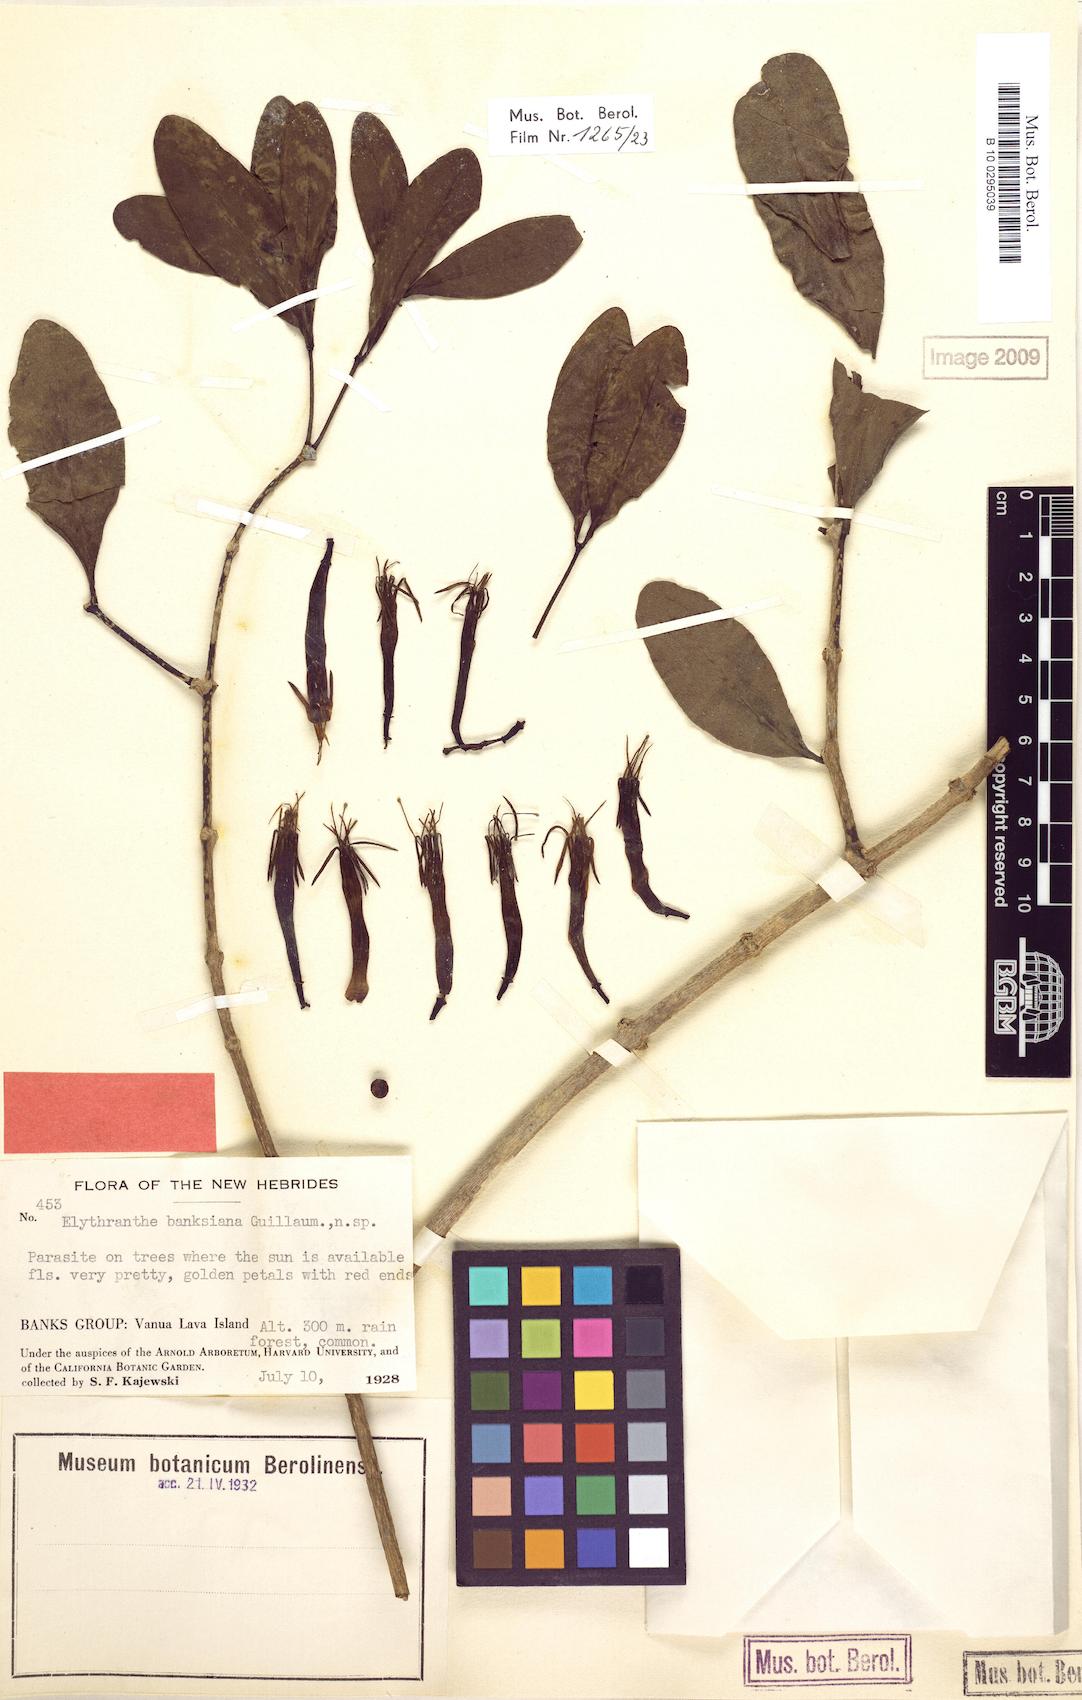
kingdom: Plantae
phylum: Tracheophyta
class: Magnoliopsida
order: Santalales
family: Loranthaceae
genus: Amylotheca
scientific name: Amylotheca dictyophleba
